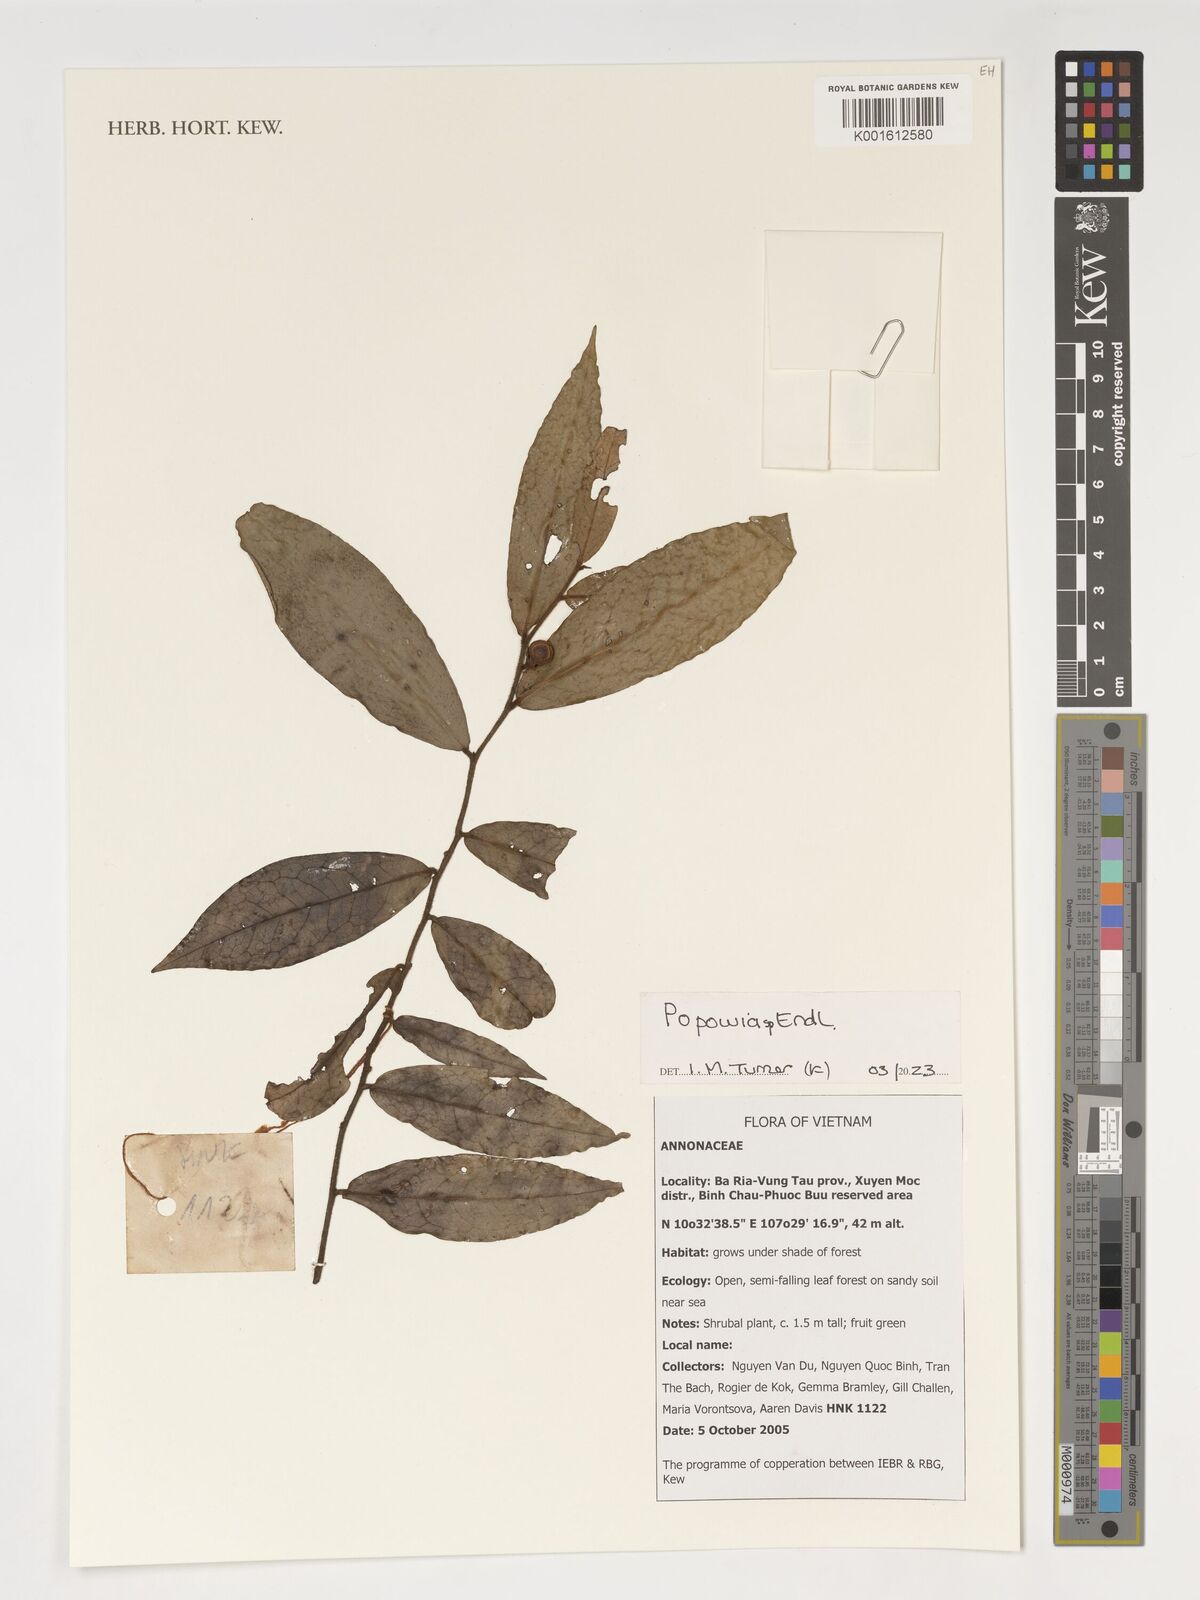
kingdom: Plantae
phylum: Tracheophyta
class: Magnoliopsida
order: Magnoliales
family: Annonaceae
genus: Popowia
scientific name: Popowia
